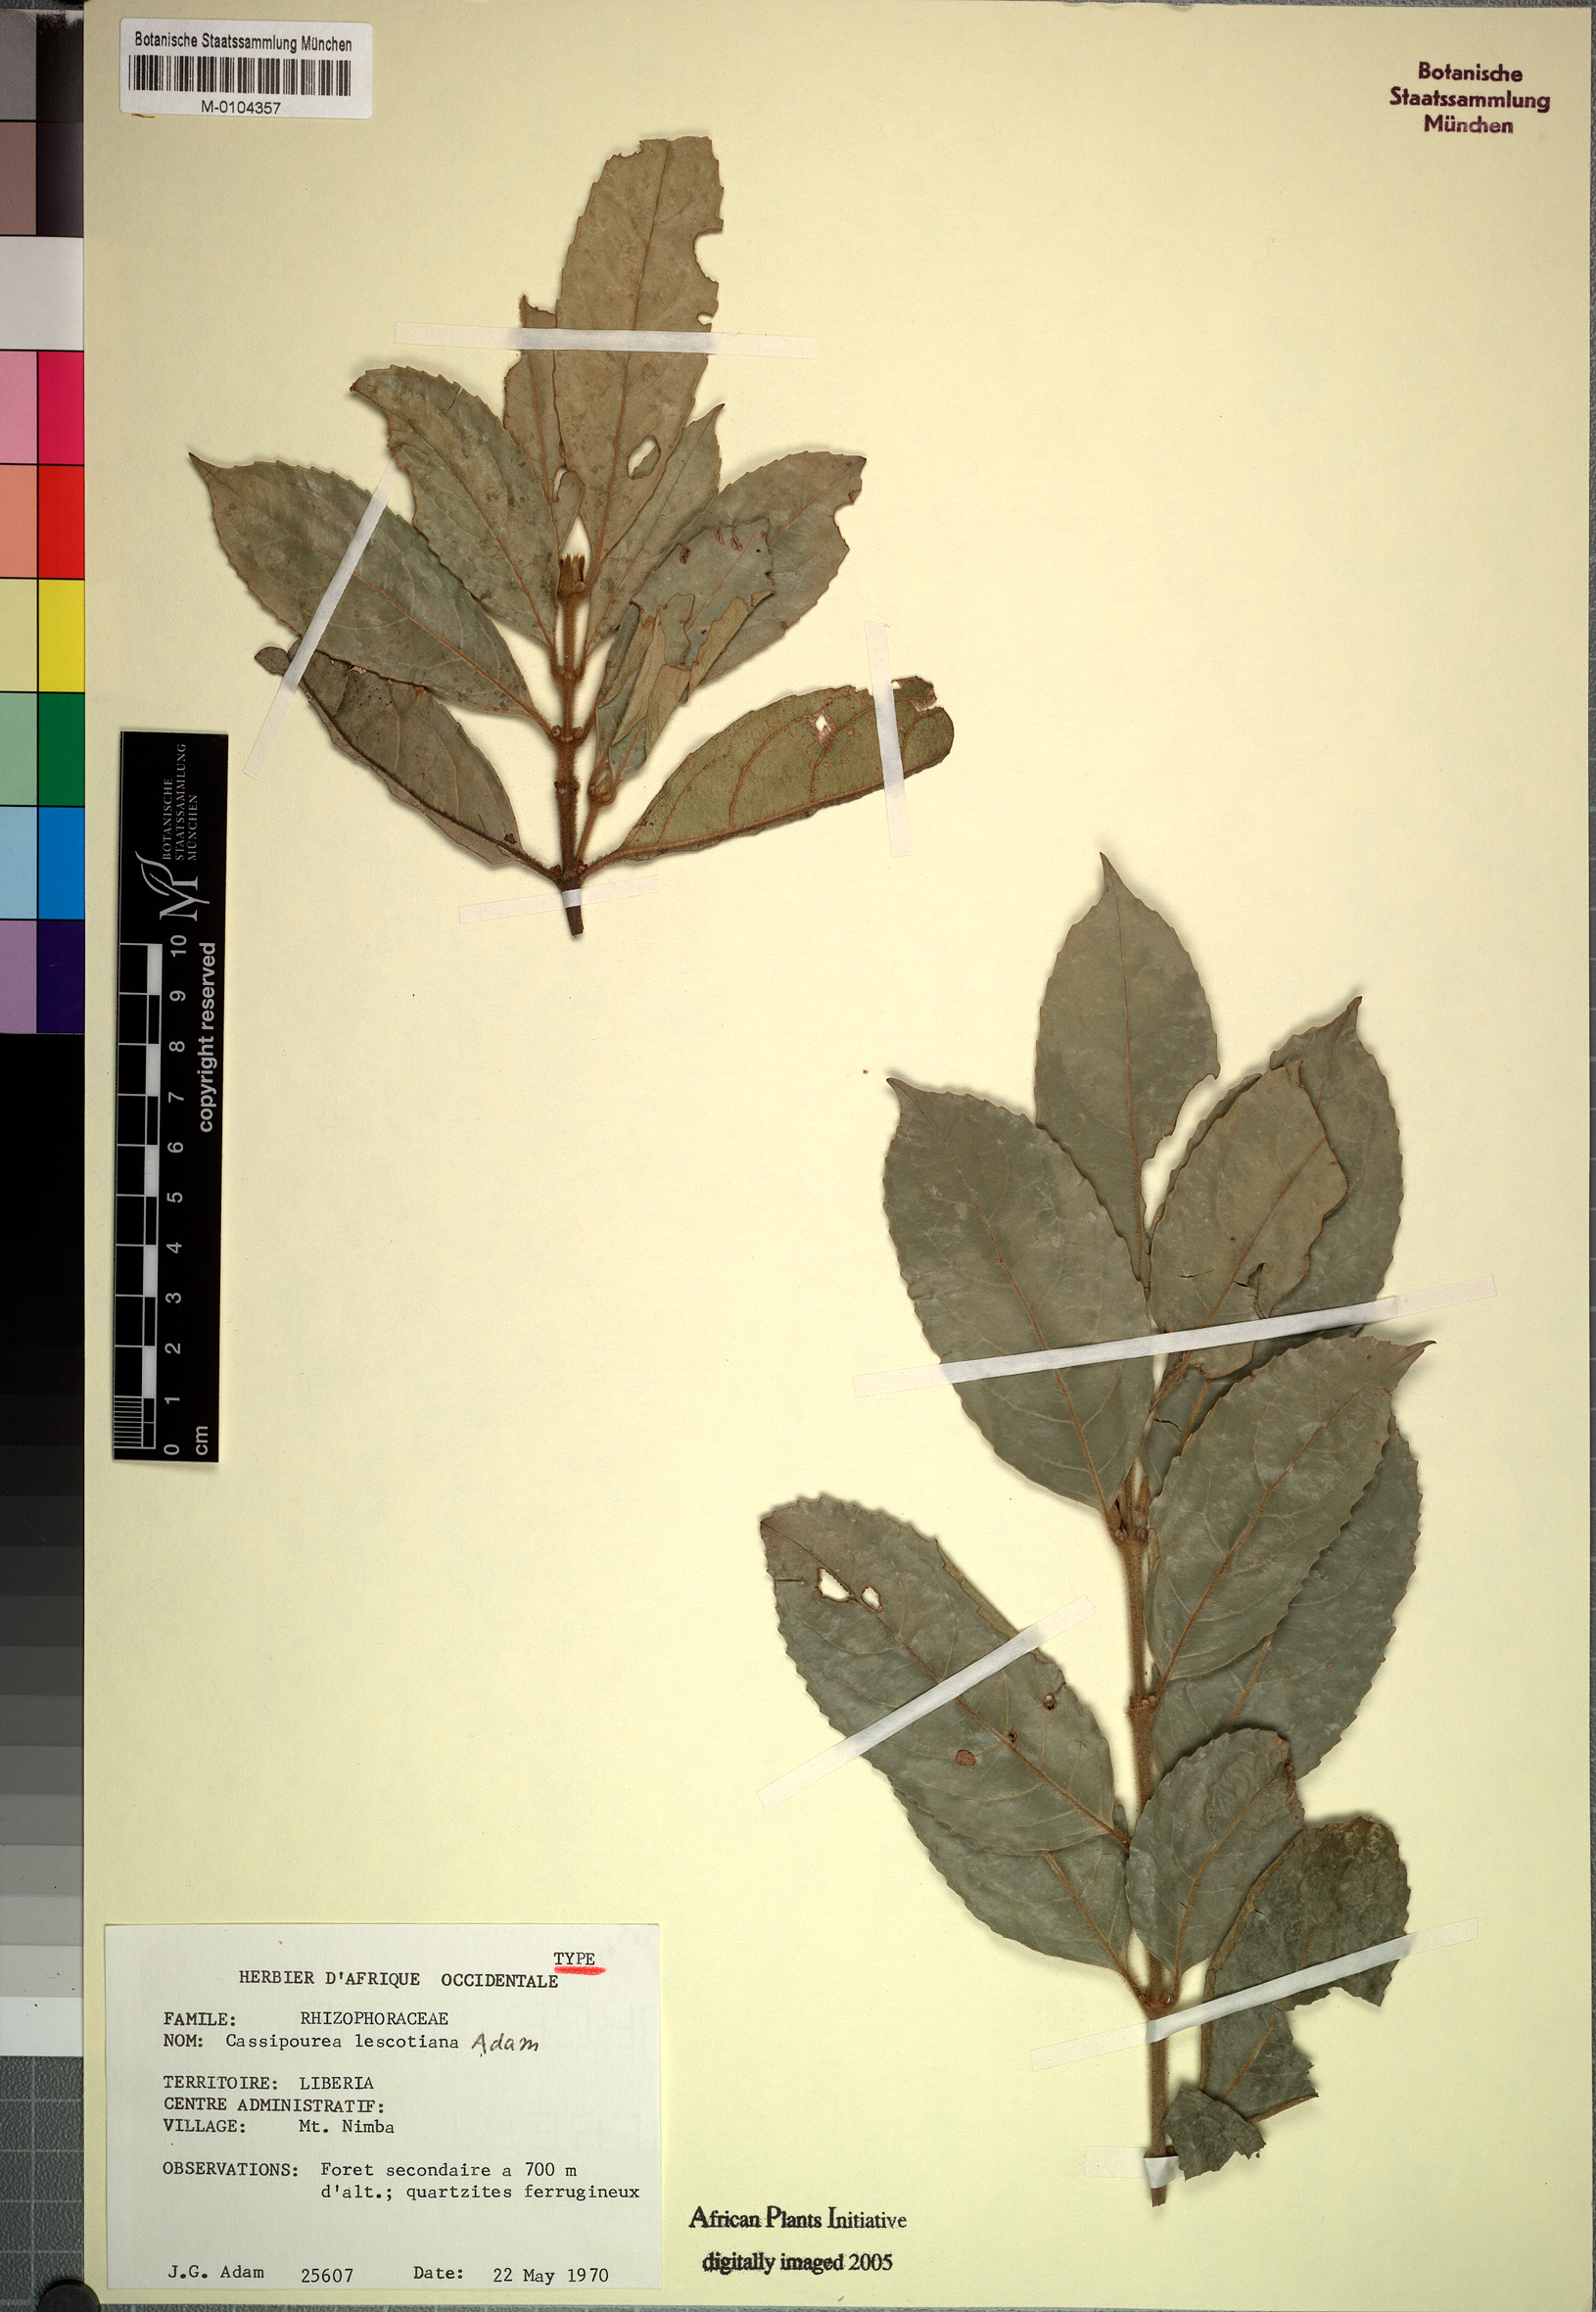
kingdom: Plantae
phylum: Tracheophyta
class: Magnoliopsida
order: Malpighiales
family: Rhizophoraceae
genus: Cassipourea
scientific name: Cassipourea lescotiana
